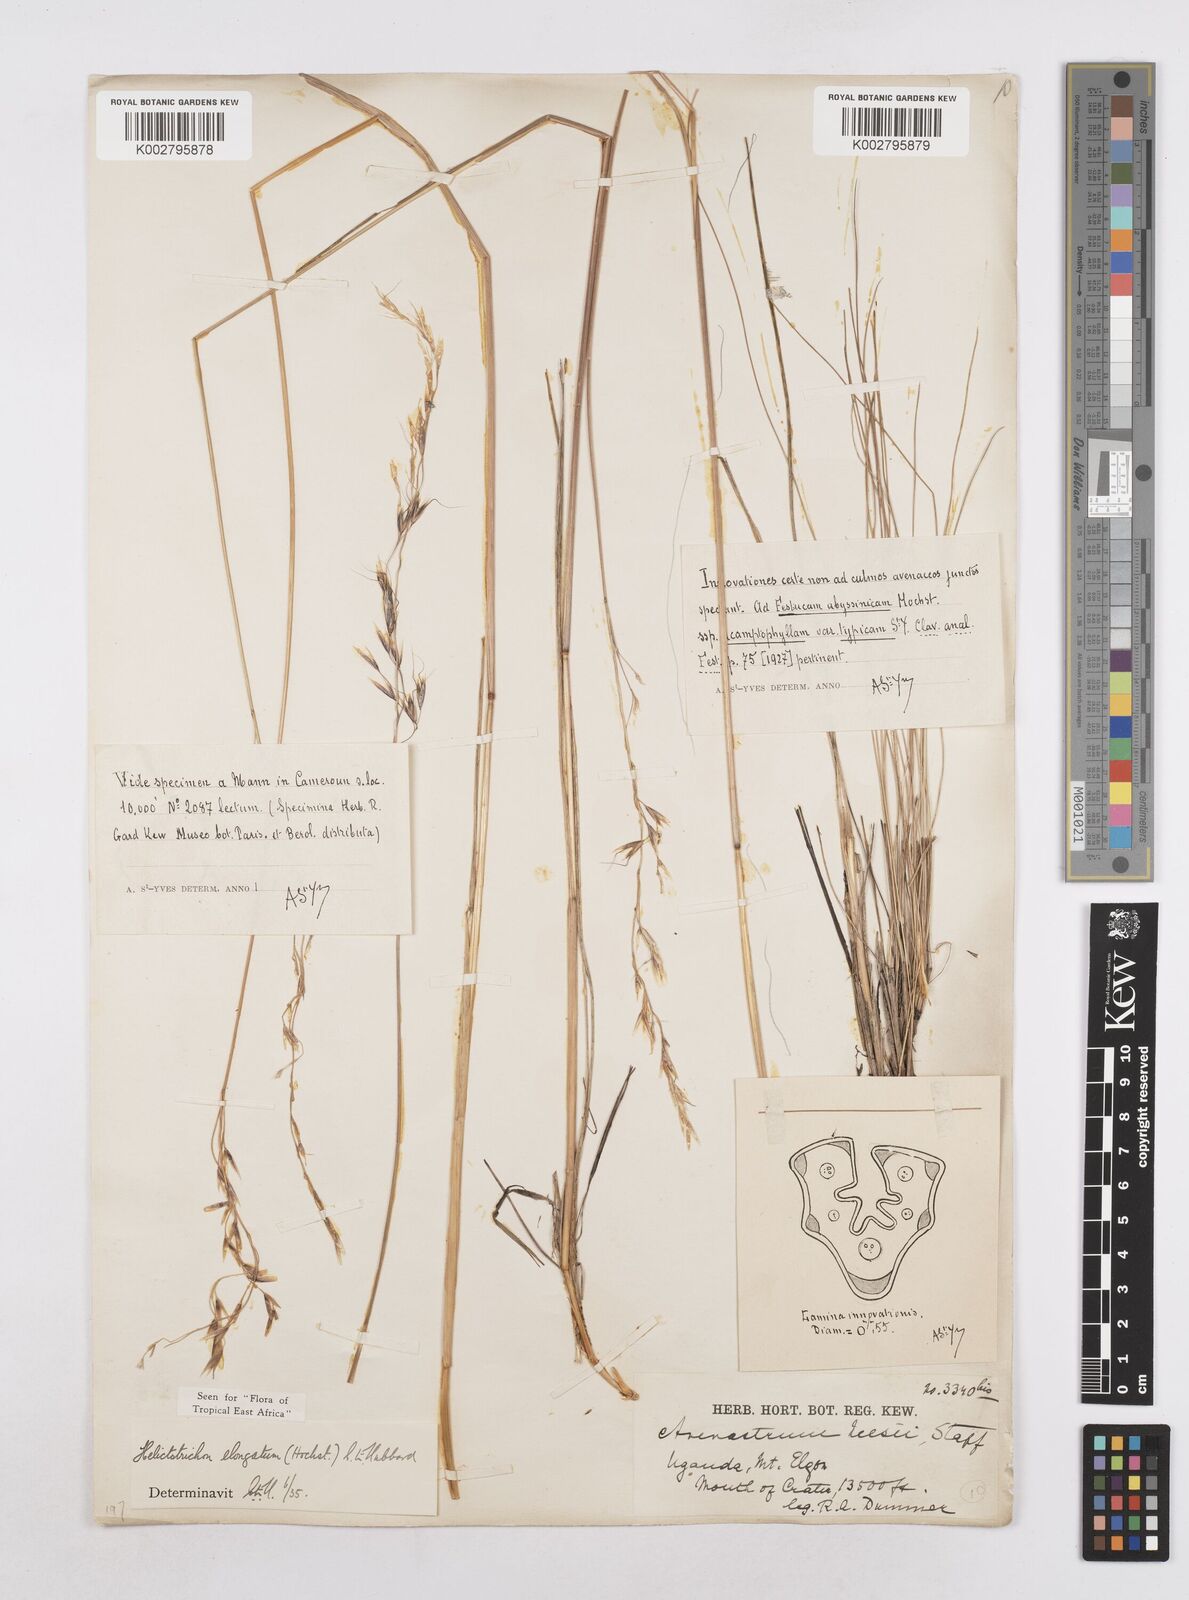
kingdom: Plantae
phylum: Tracheophyta
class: Liliopsida
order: Poales
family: Poaceae
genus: Trisetopsis
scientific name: Trisetopsis elongata
